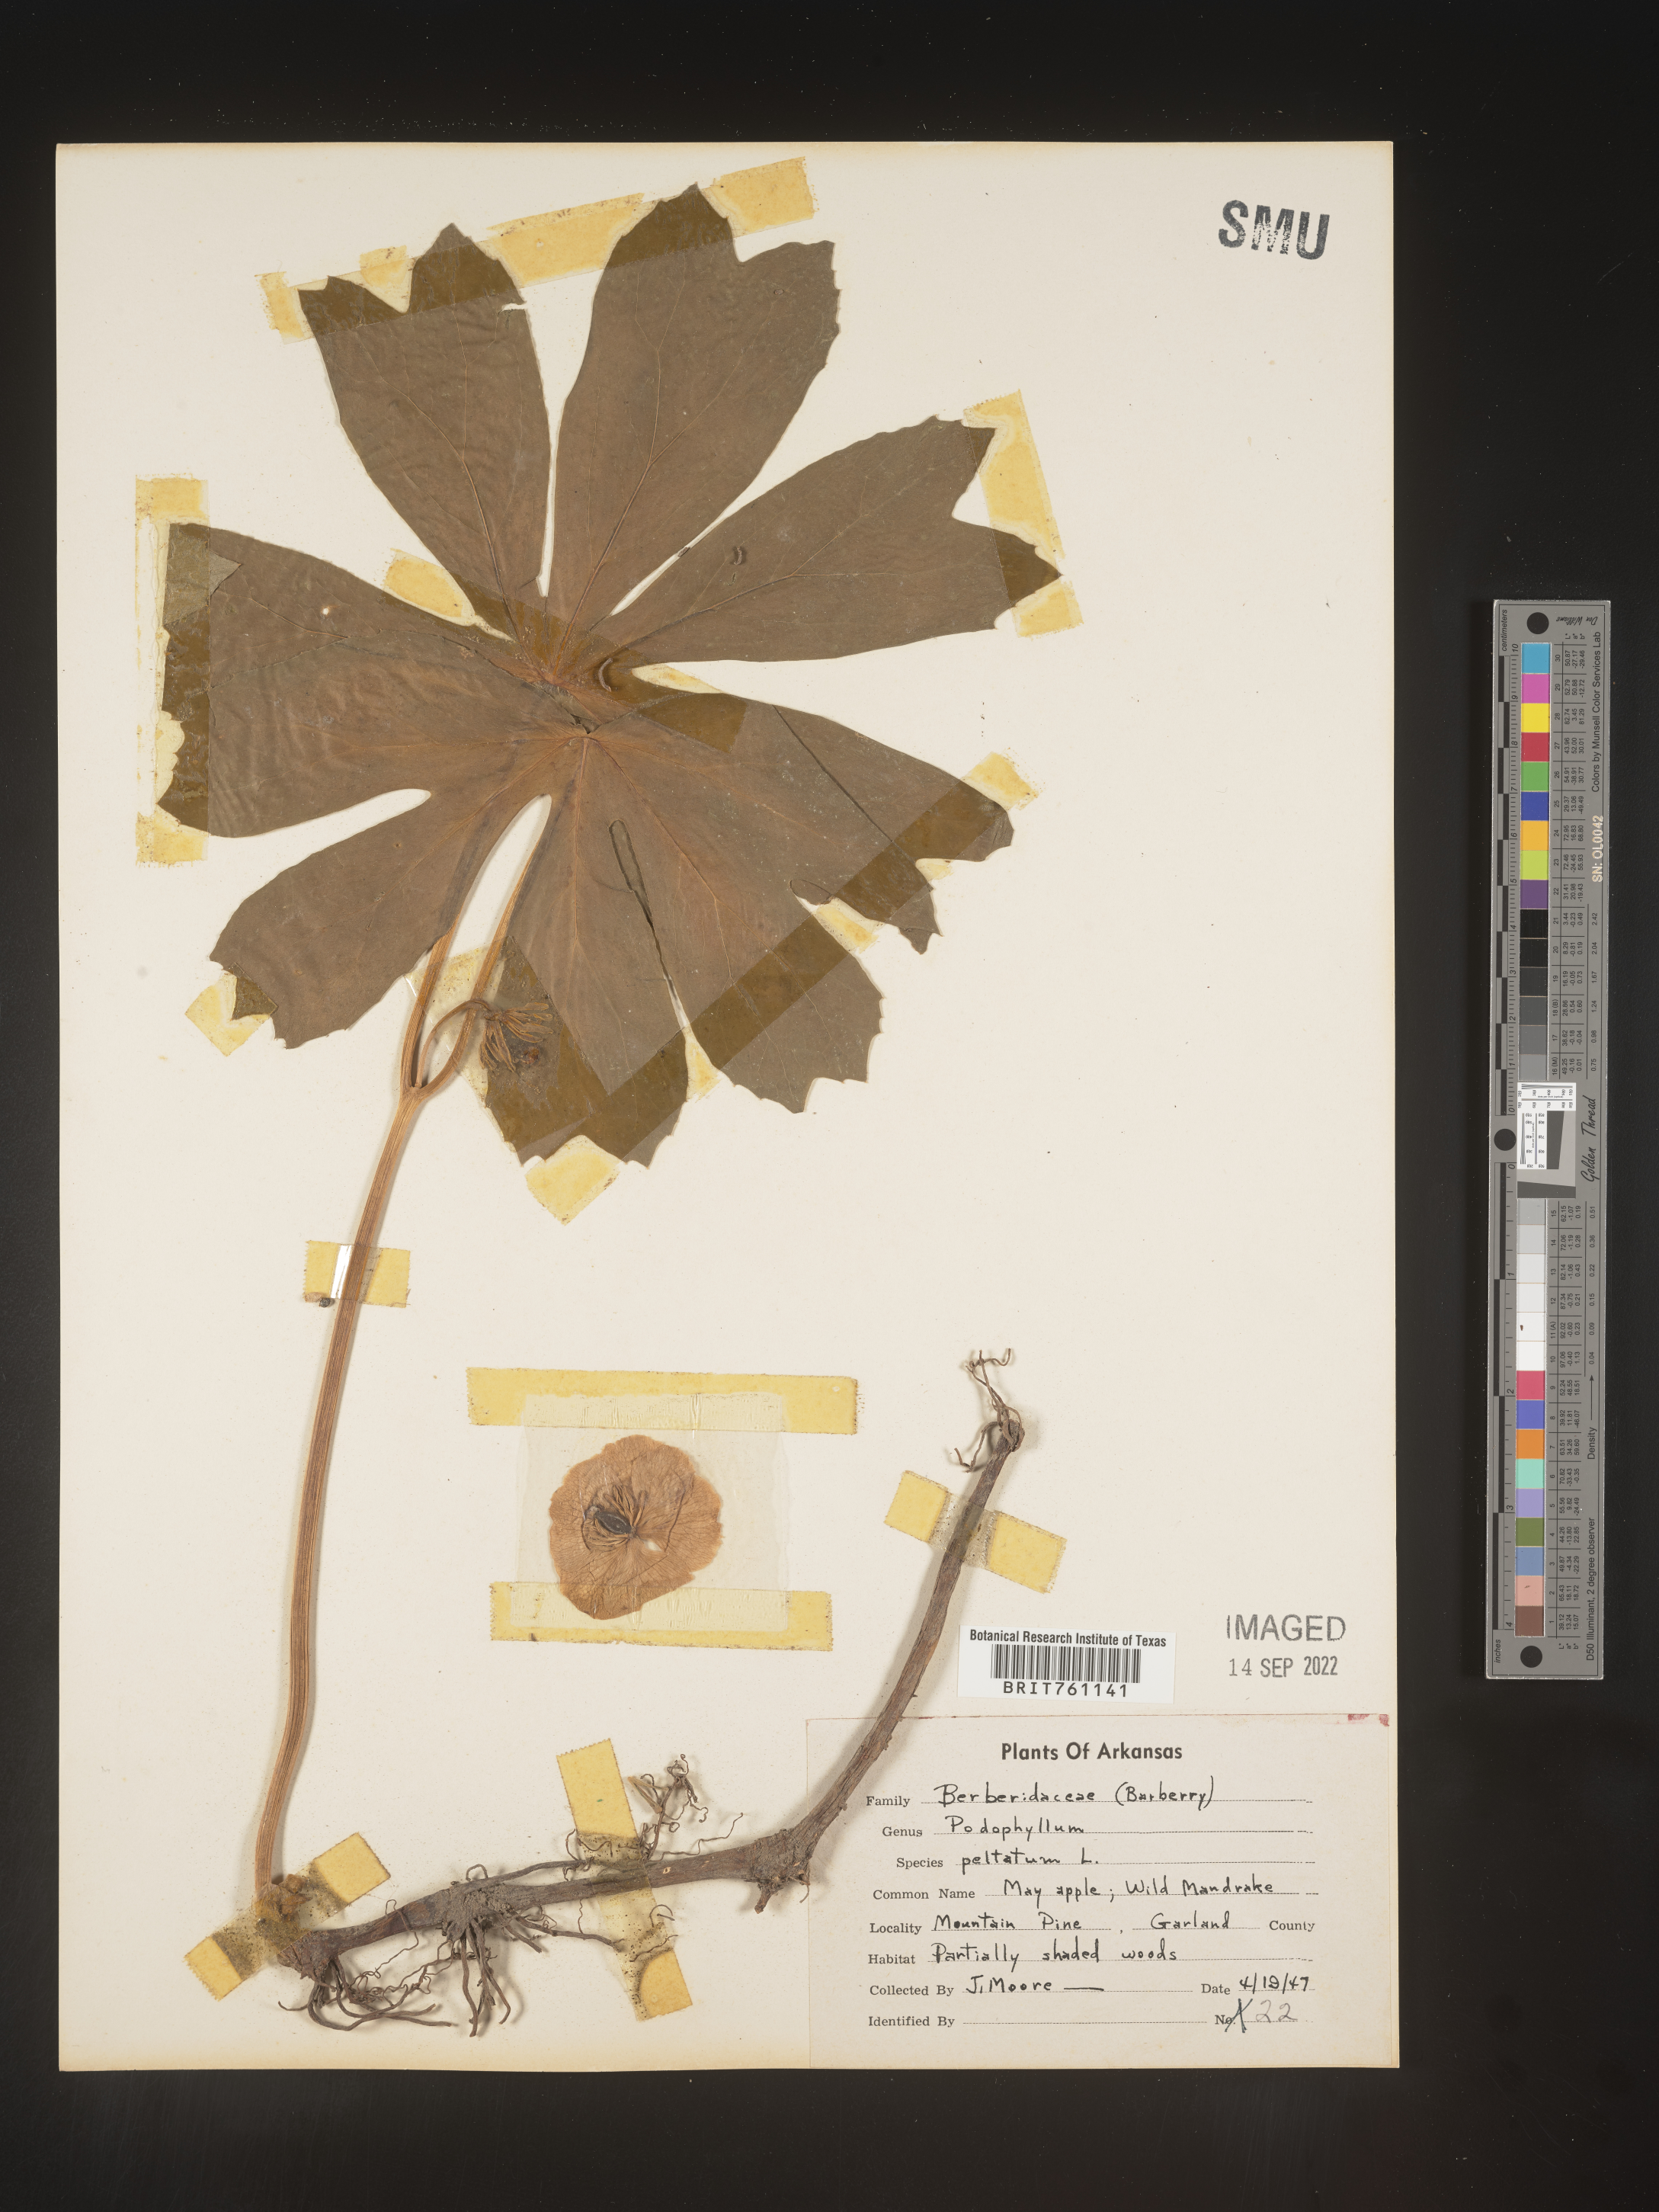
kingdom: Plantae
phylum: Tracheophyta
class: Magnoliopsida
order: Ranunculales
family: Berberidaceae
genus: Podophyllum
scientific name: Podophyllum peltatum
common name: Wild mandrake
